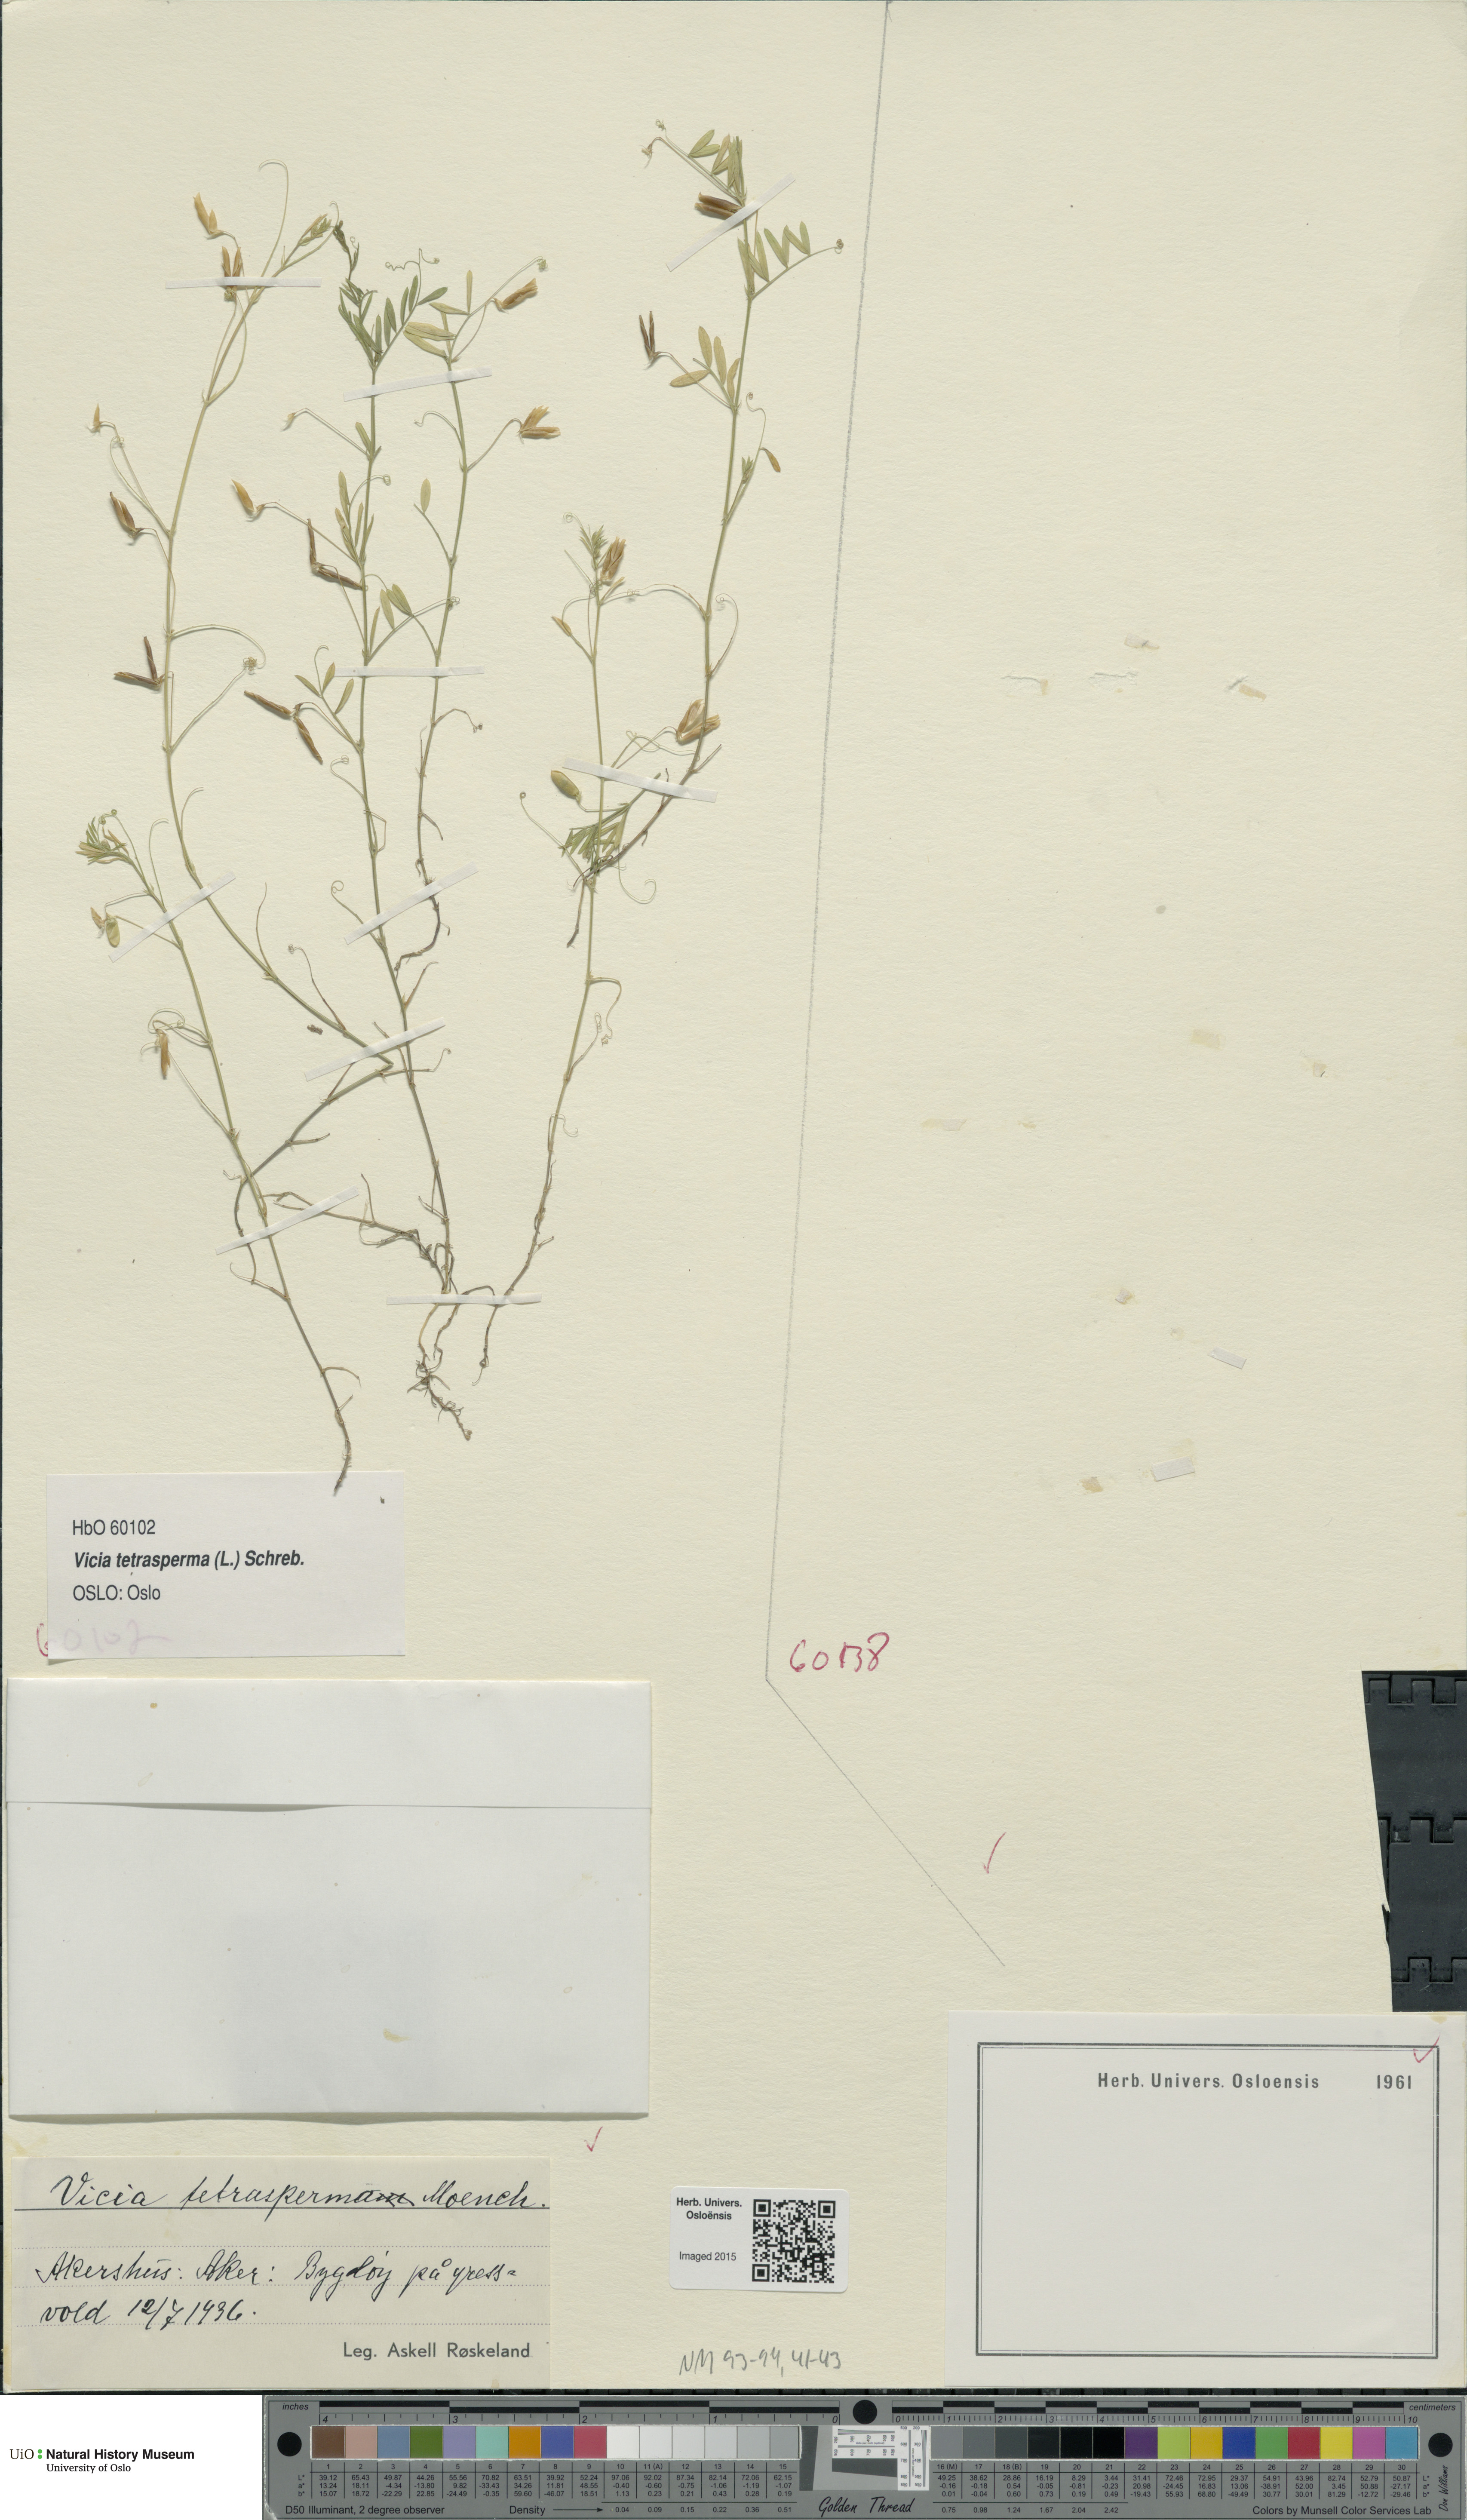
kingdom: Plantae
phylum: Tracheophyta
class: Magnoliopsida
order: Fabales
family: Fabaceae
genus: Vicia
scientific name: Vicia tetrasperma
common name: Smooth tare
